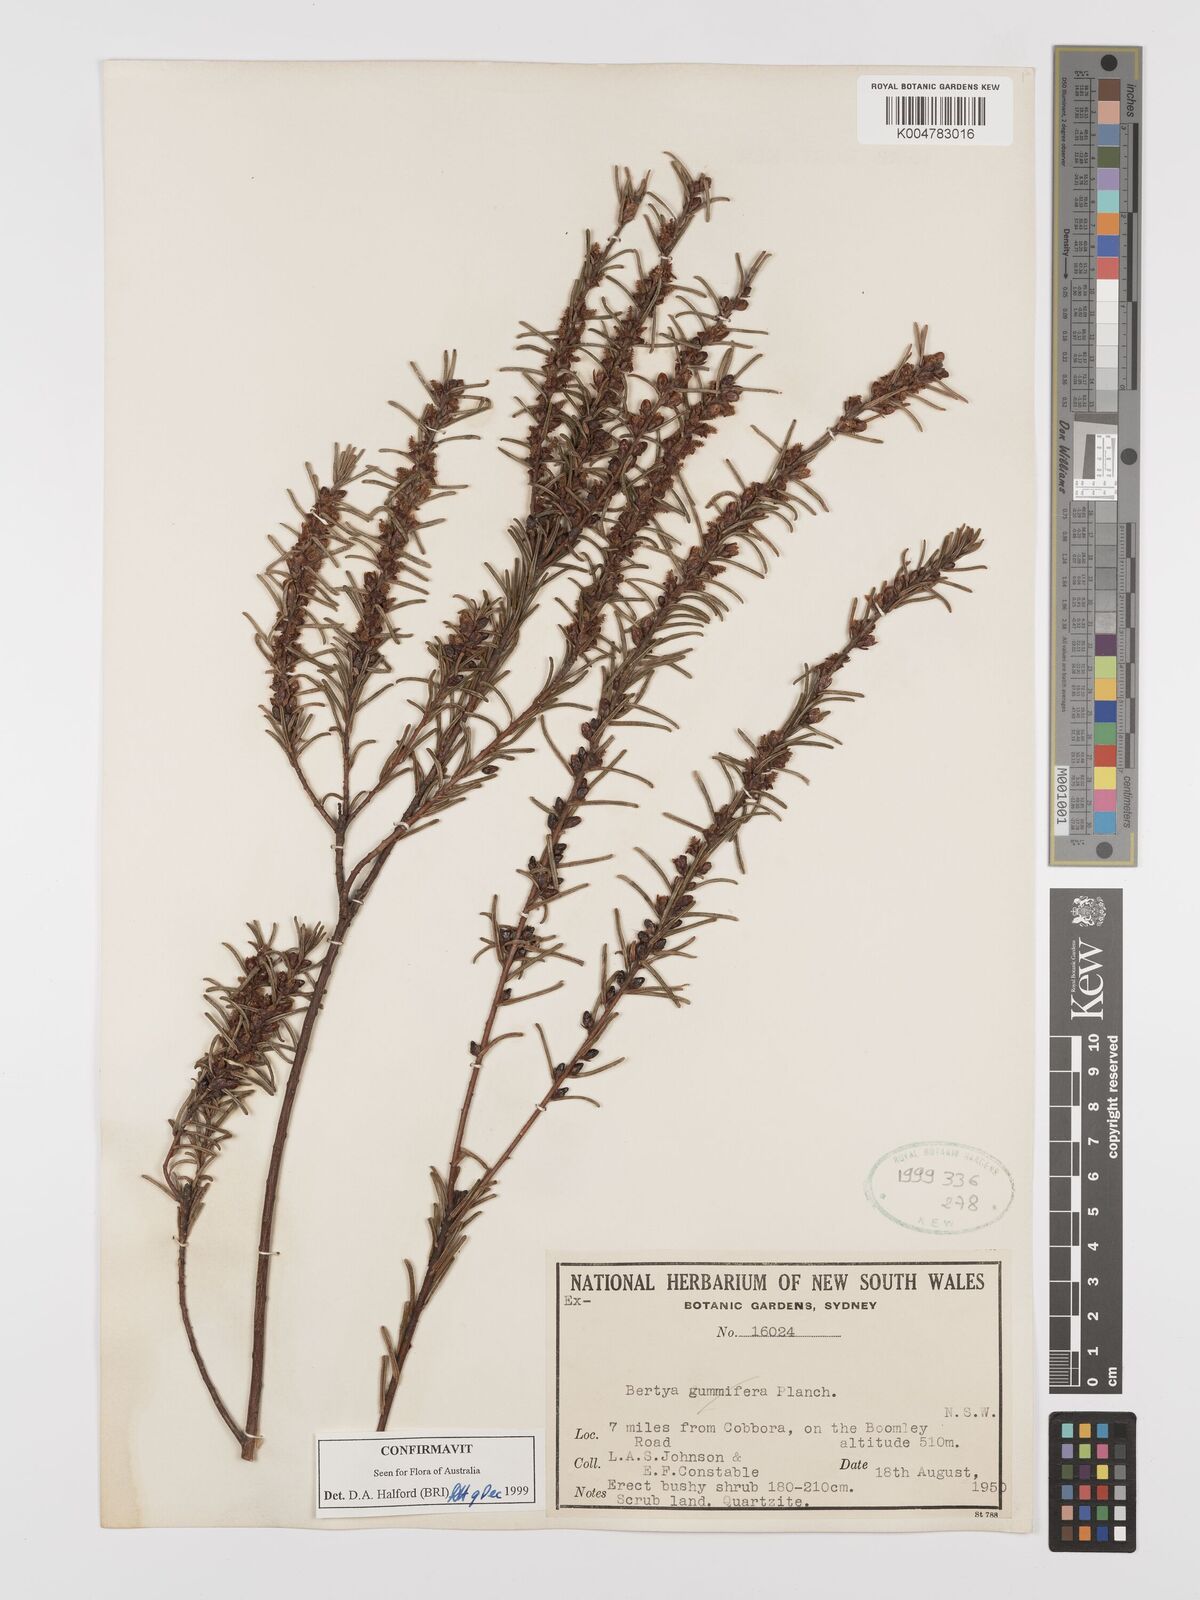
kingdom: Plantae
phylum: Tracheophyta
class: Magnoliopsida
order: Malpighiales
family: Euphorbiaceae
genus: Bertya
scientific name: Bertya gummifera
